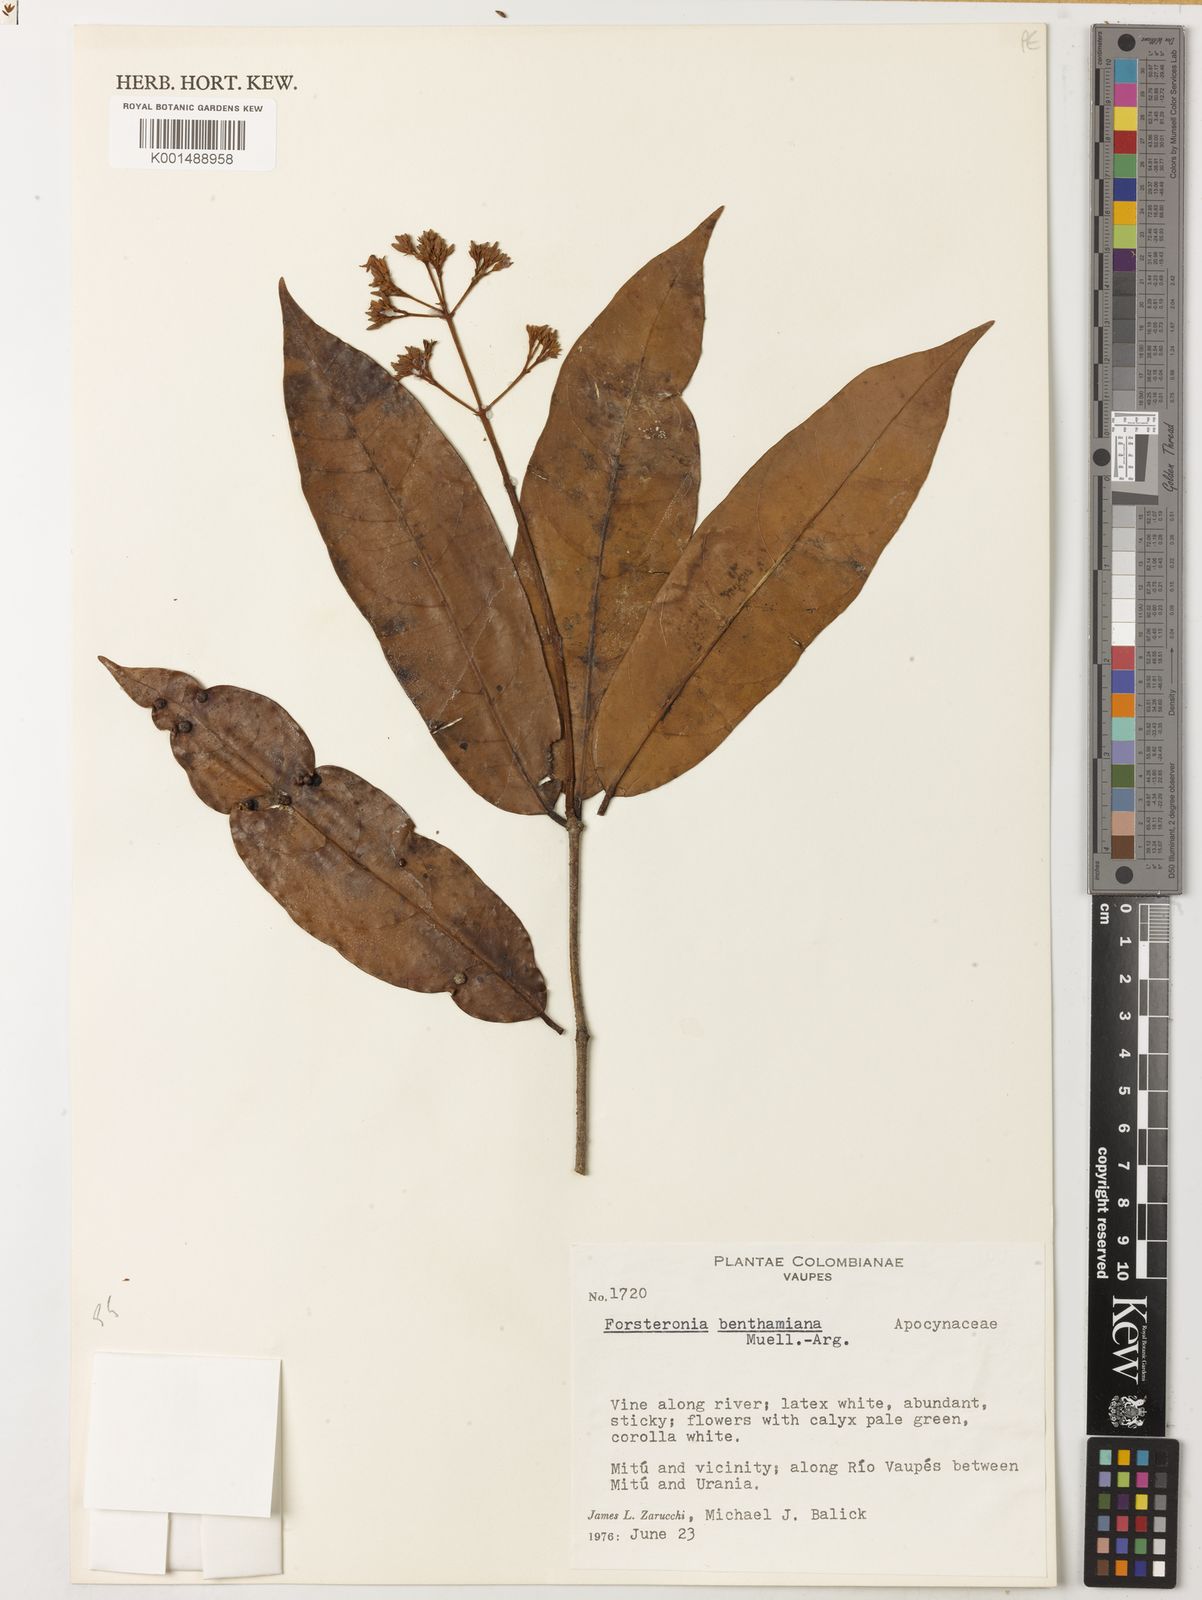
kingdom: Plantae
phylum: Tracheophyta
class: Magnoliopsida
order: Gentianales
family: Apocynaceae
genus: Forsteronia
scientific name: Forsteronia acouci
